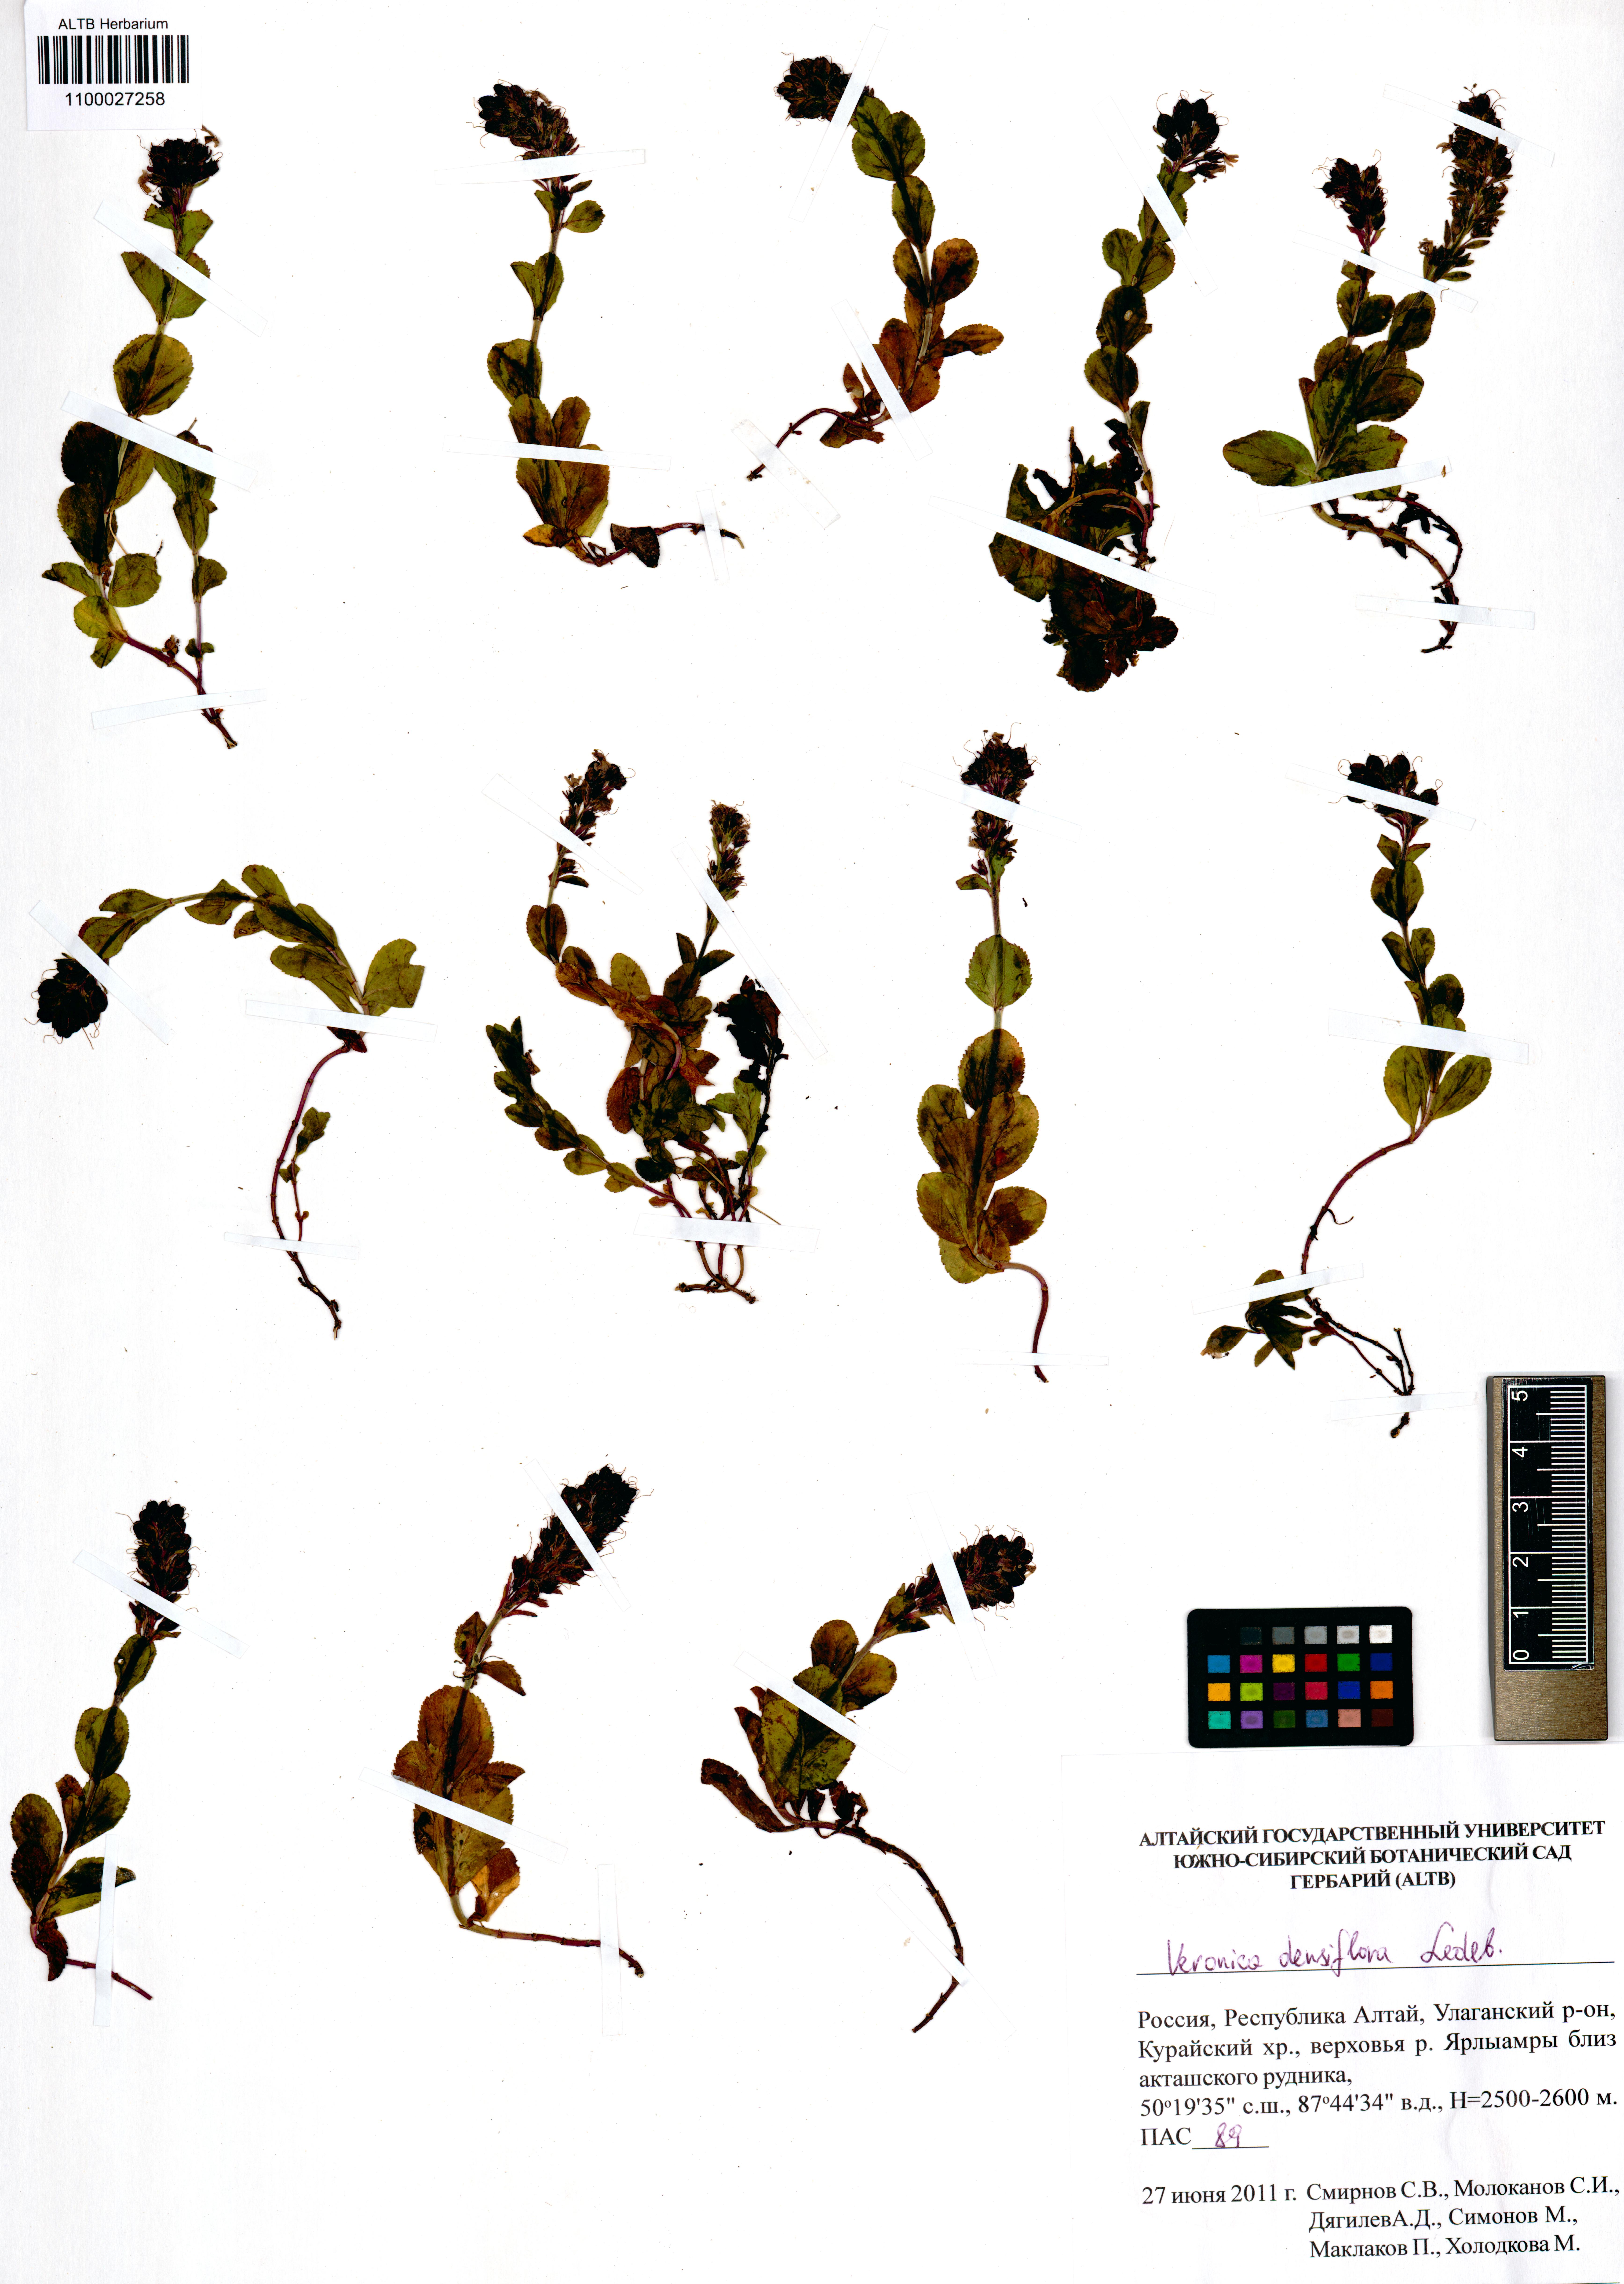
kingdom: Plantae
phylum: Tracheophyta
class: Magnoliopsida
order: Lamiales
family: Plantaginaceae
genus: Veronica
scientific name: Veronica densiflora
